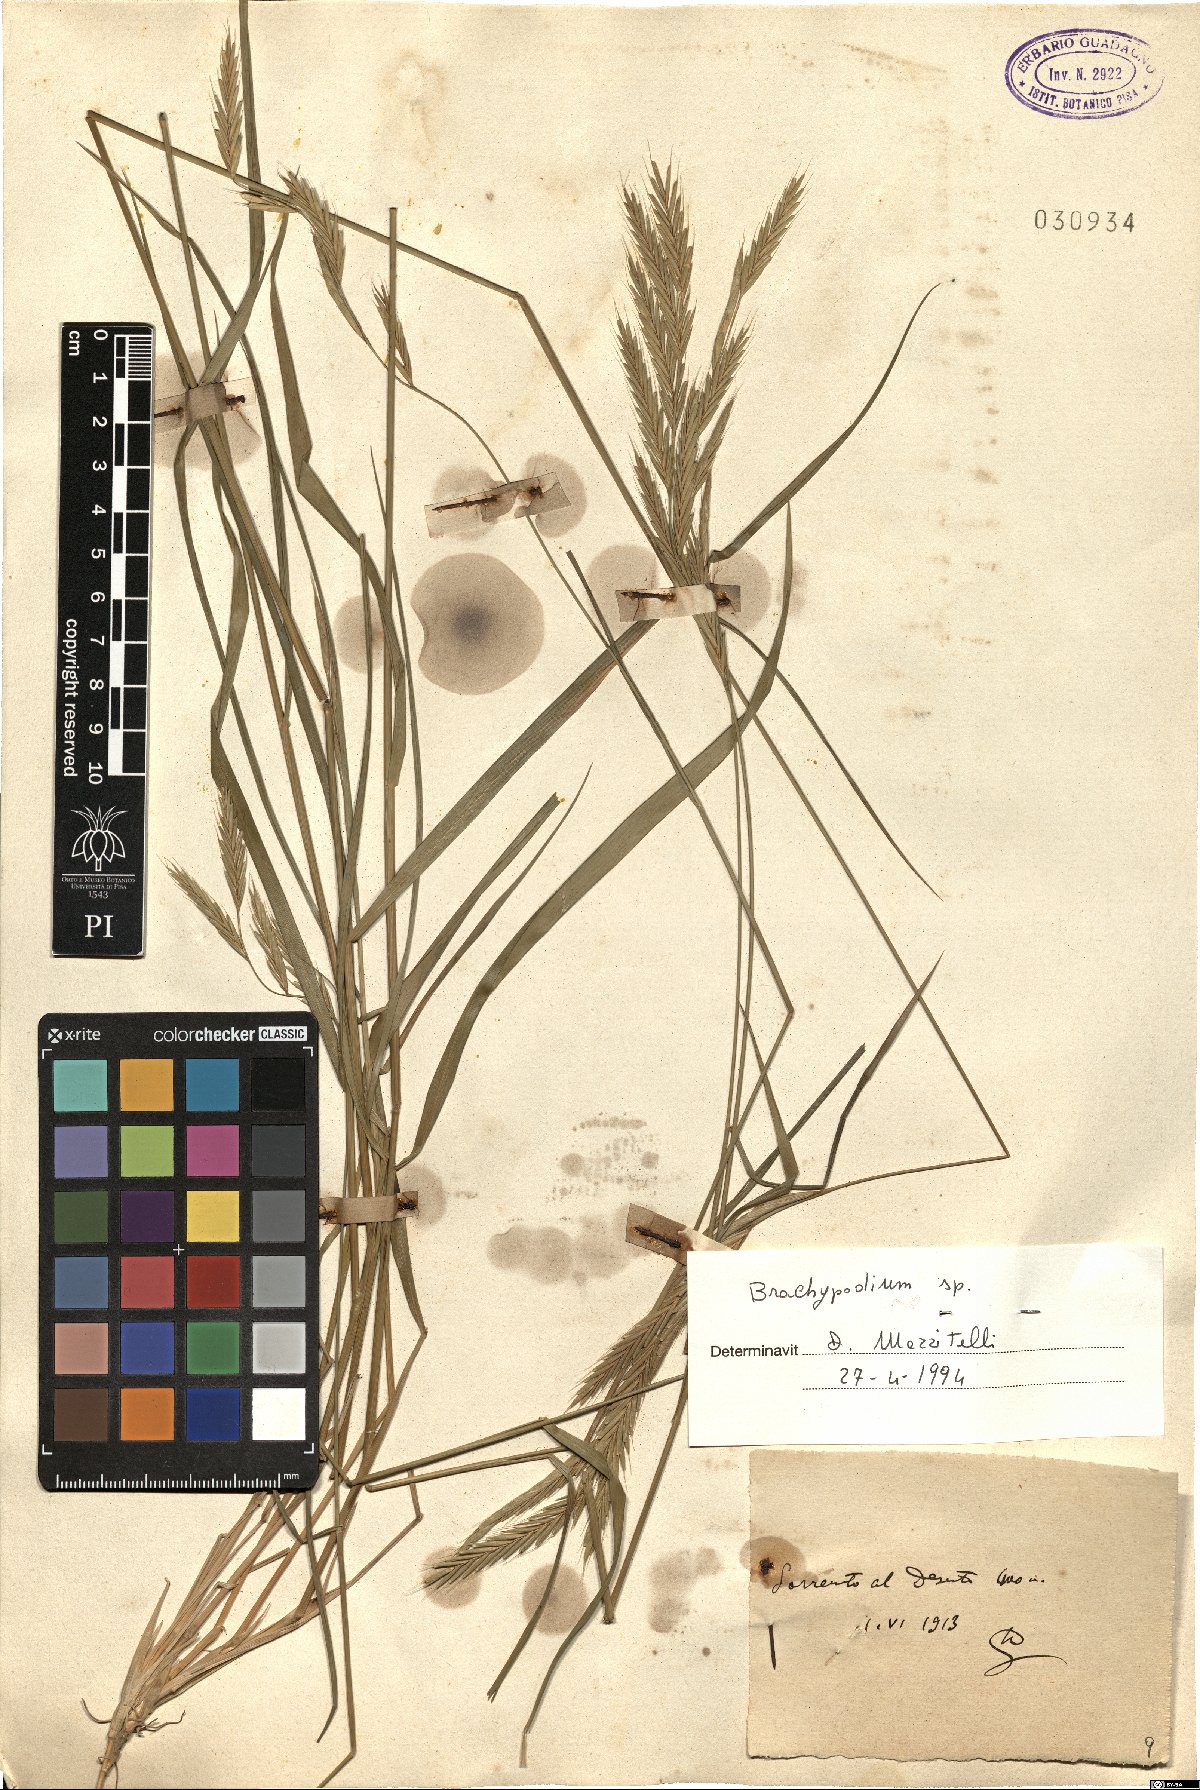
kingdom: Plantae
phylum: Tracheophyta
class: Liliopsida
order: Poales
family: Poaceae
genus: Brachypodium
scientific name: Brachypodium
